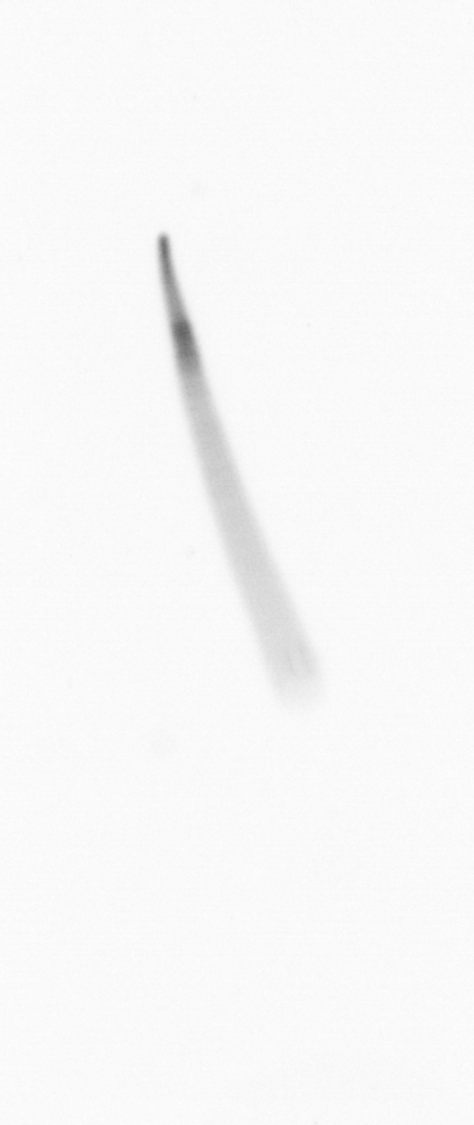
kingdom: Chromista
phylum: Ochrophyta
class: Bacillariophyceae
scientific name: Bacillariophyceae
